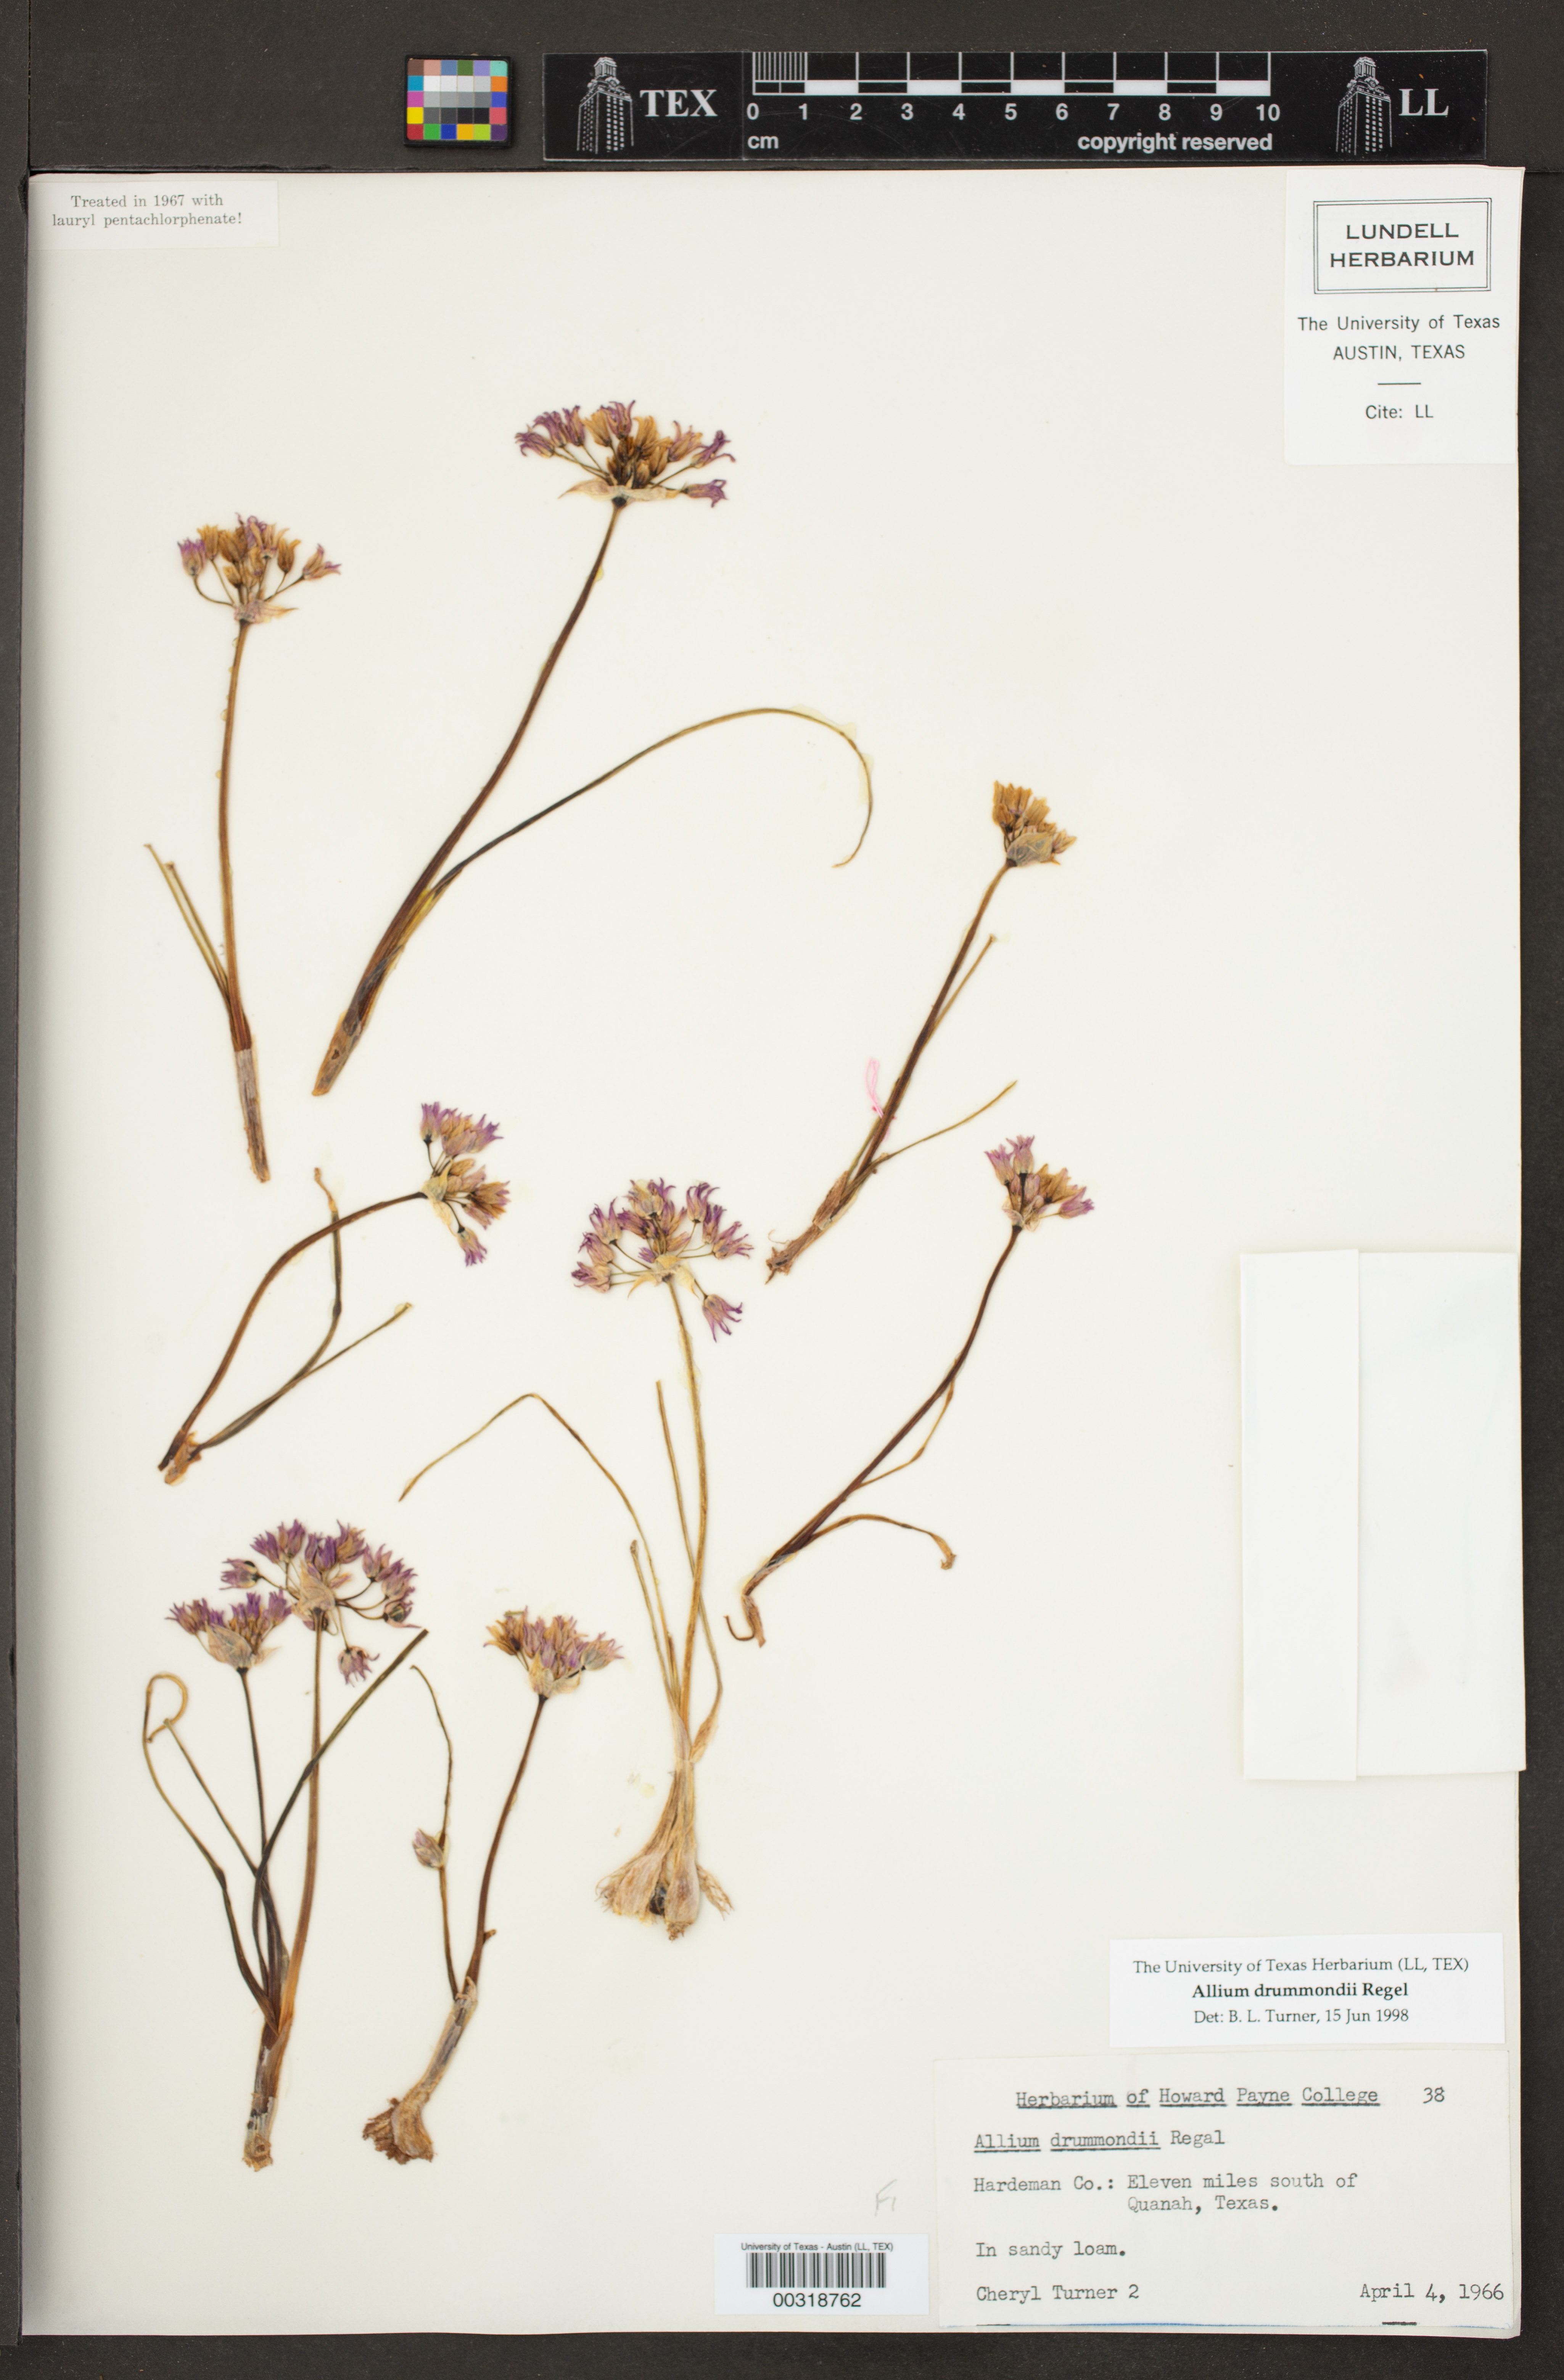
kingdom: Plantae
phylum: Tracheophyta
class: Liliopsida
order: Asparagales
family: Amaryllidaceae
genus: Allium
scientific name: Allium drummondii
